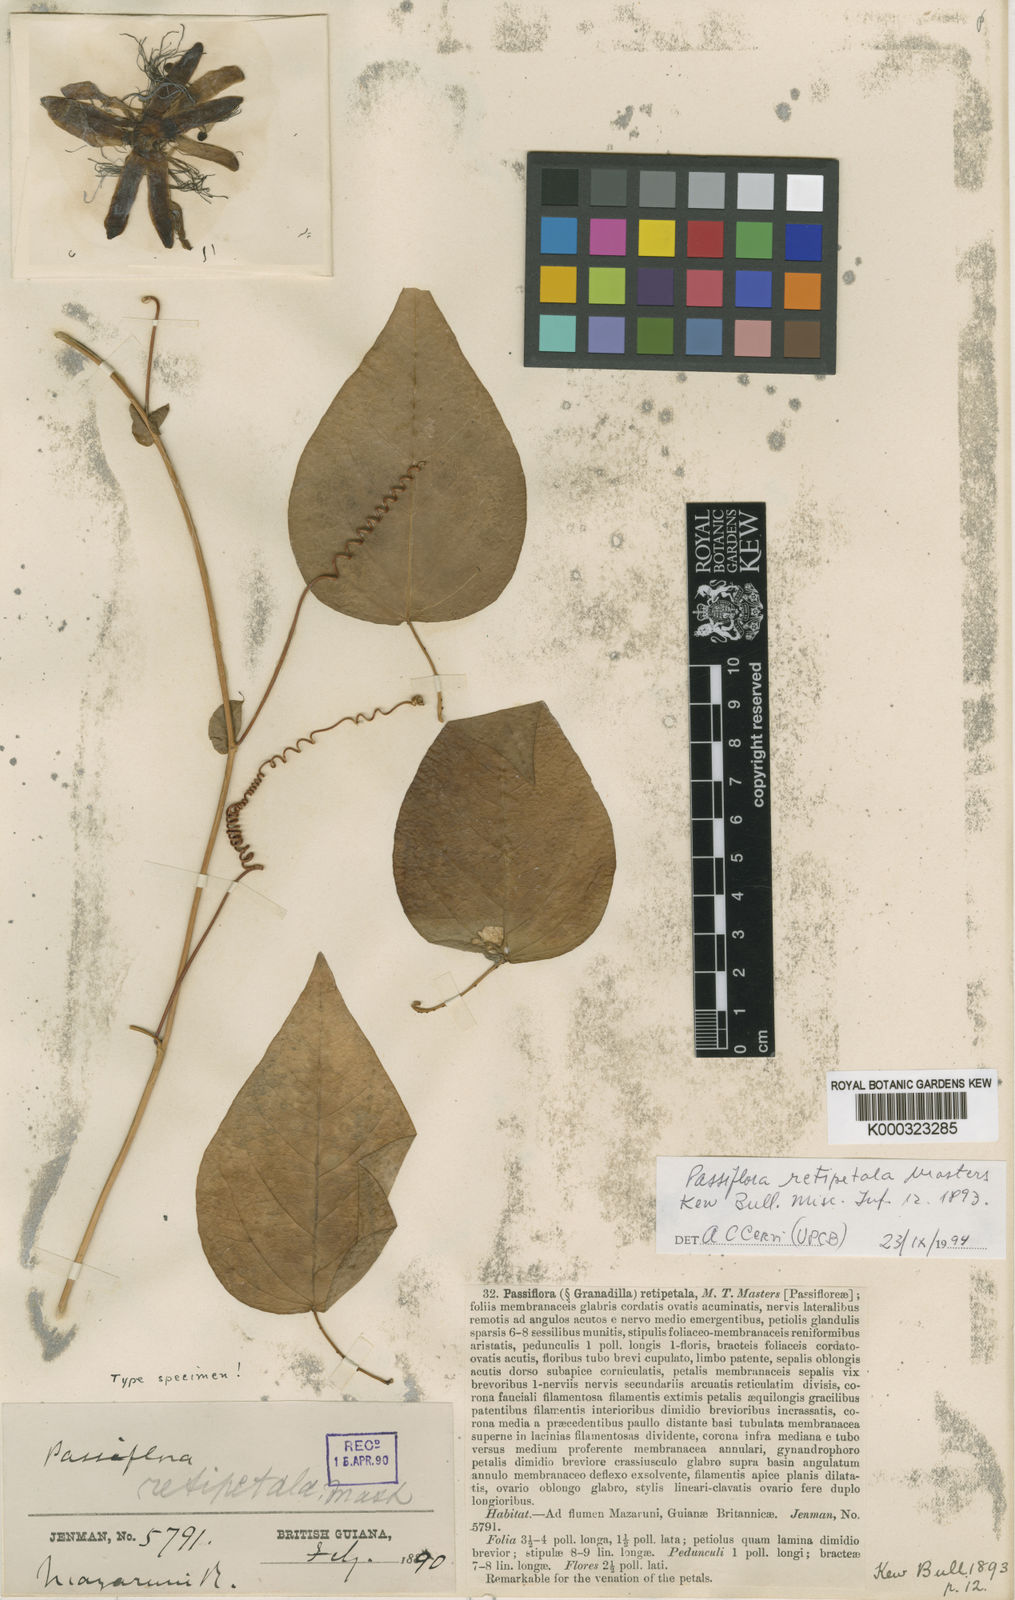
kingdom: Plantae
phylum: Tracheophyta
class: Magnoliopsida
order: Malpighiales
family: Passifloraceae
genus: Passiflora
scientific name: Passiflora retipetala
